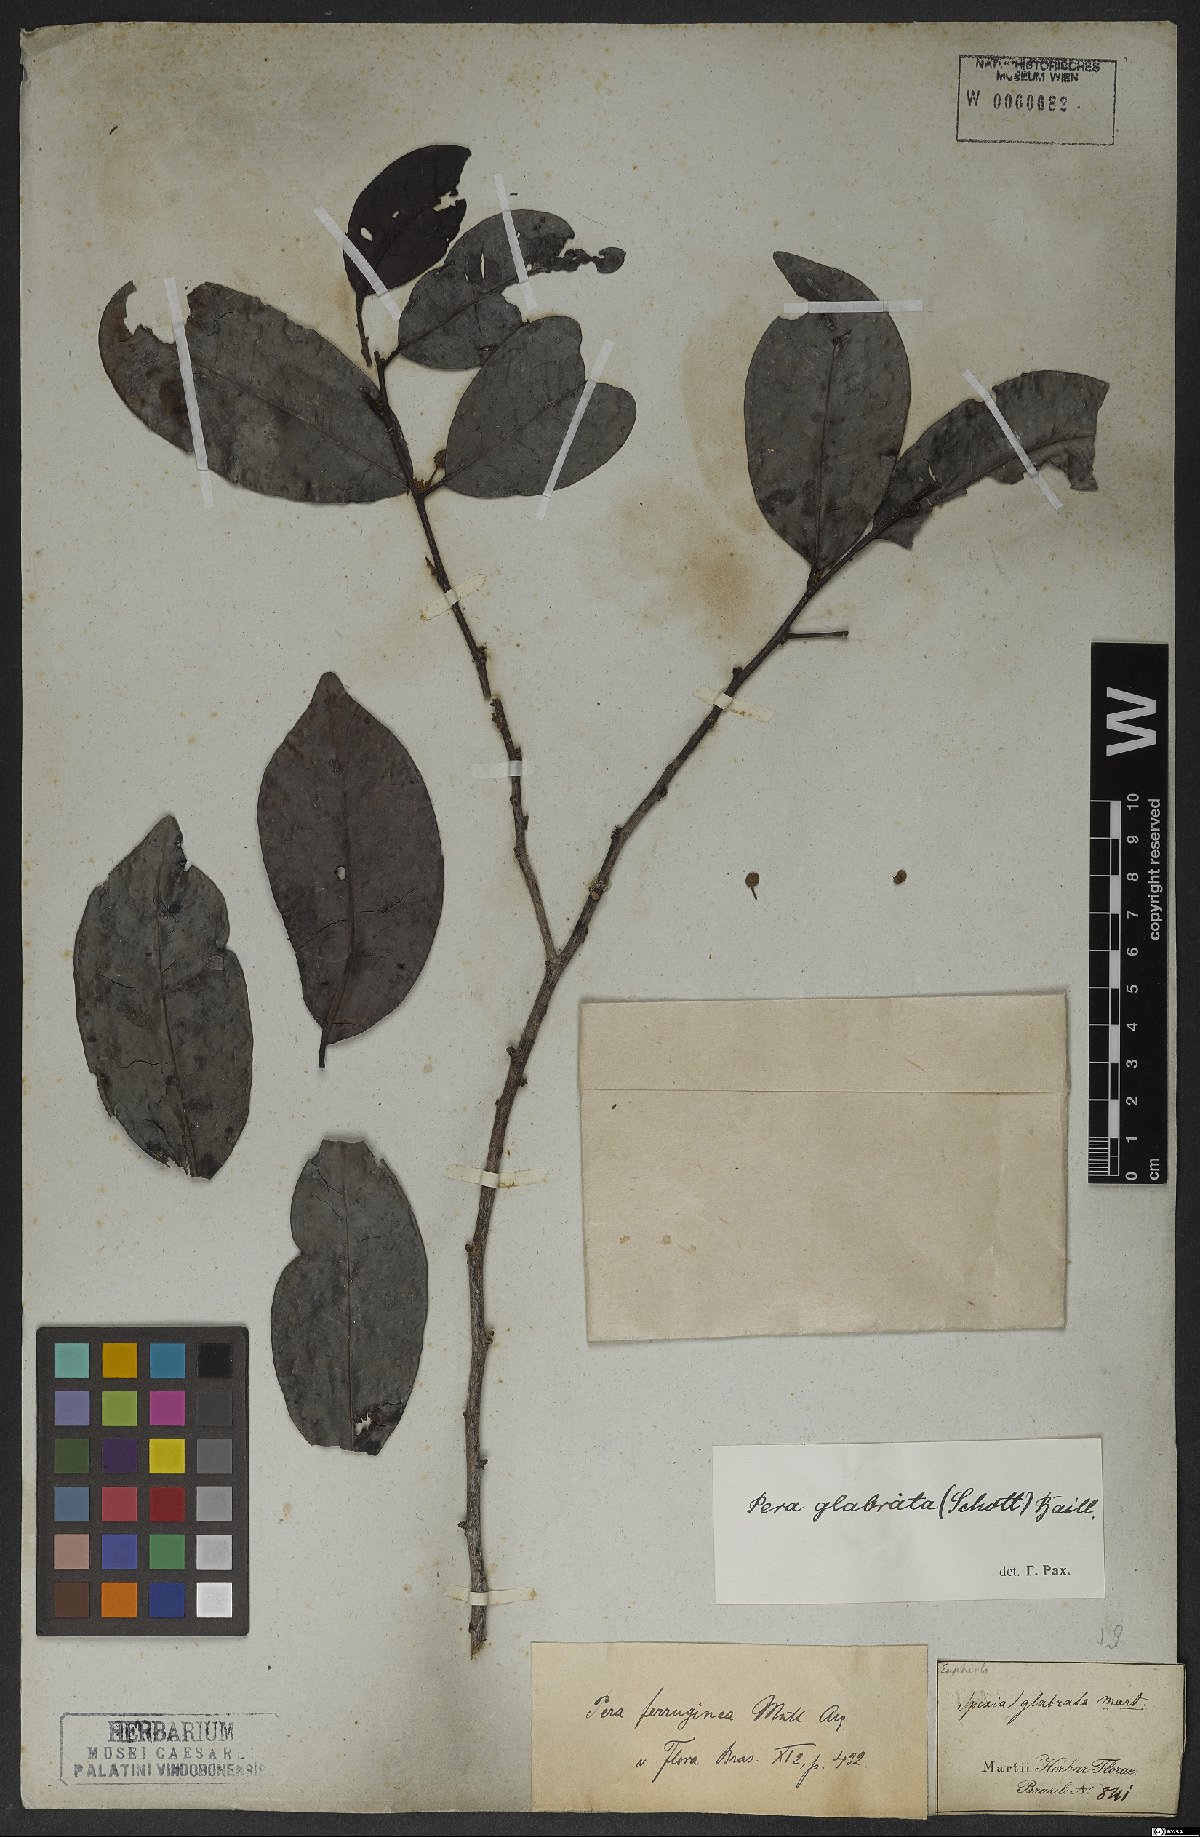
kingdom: Plantae
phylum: Tracheophyta
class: Magnoliopsida
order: Malpighiales
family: Peraceae
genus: Pera
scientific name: Pera glabrata
